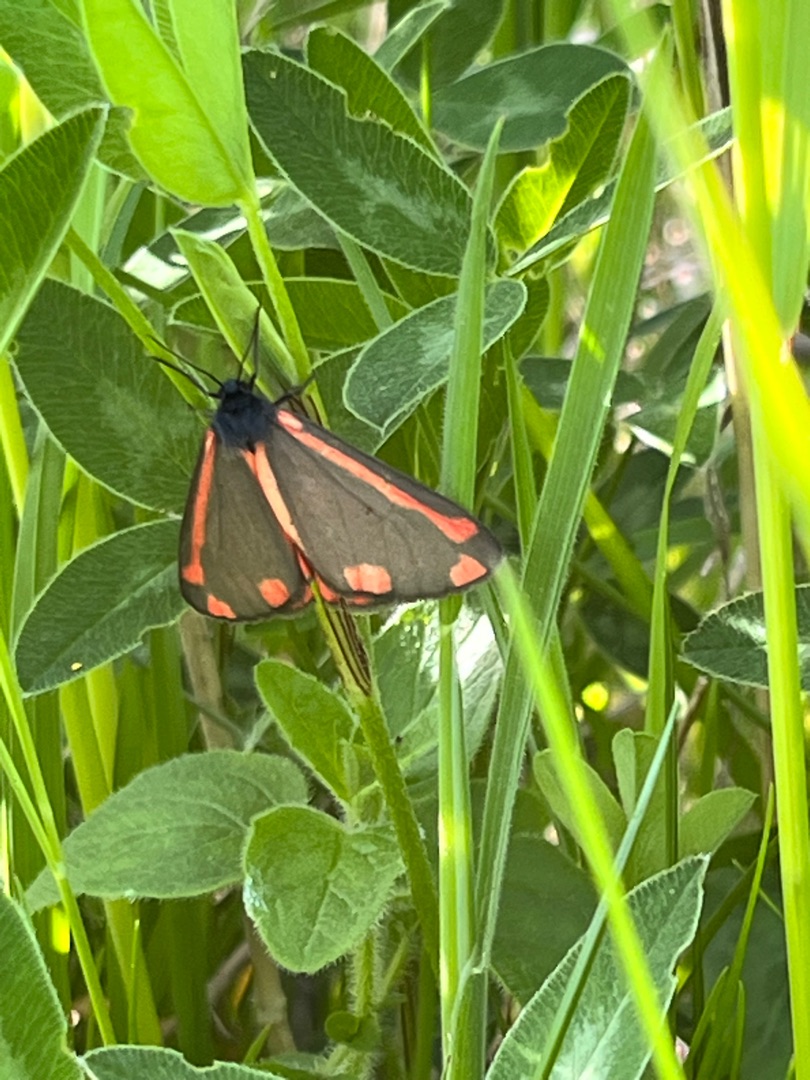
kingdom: Animalia
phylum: Arthropoda
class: Insecta
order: Lepidoptera
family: Erebidae
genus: Tyria
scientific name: Tyria jacobaeae
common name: Blodplet
